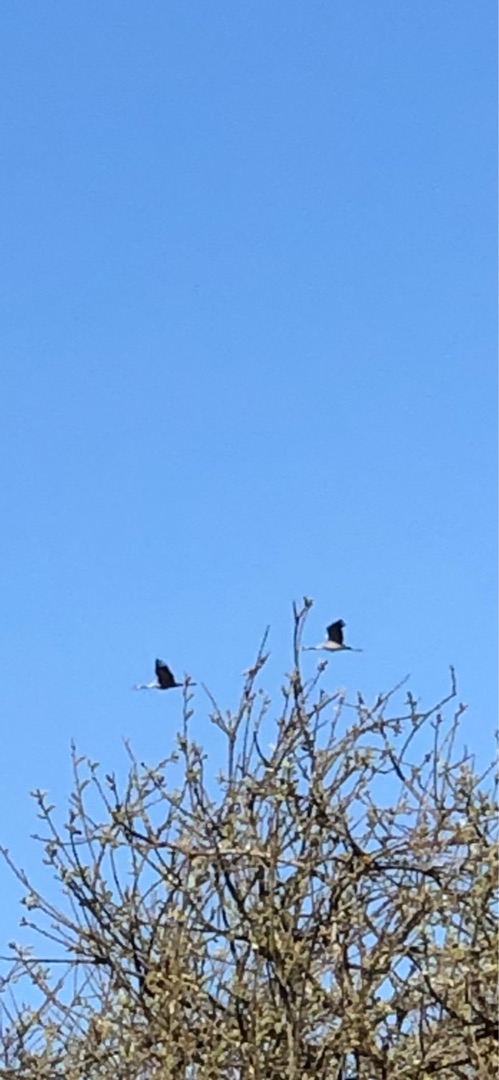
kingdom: Animalia
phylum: Chordata
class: Aves
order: Gruiformes
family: Gruidae
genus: Grus
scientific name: Grus grus
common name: Trane
